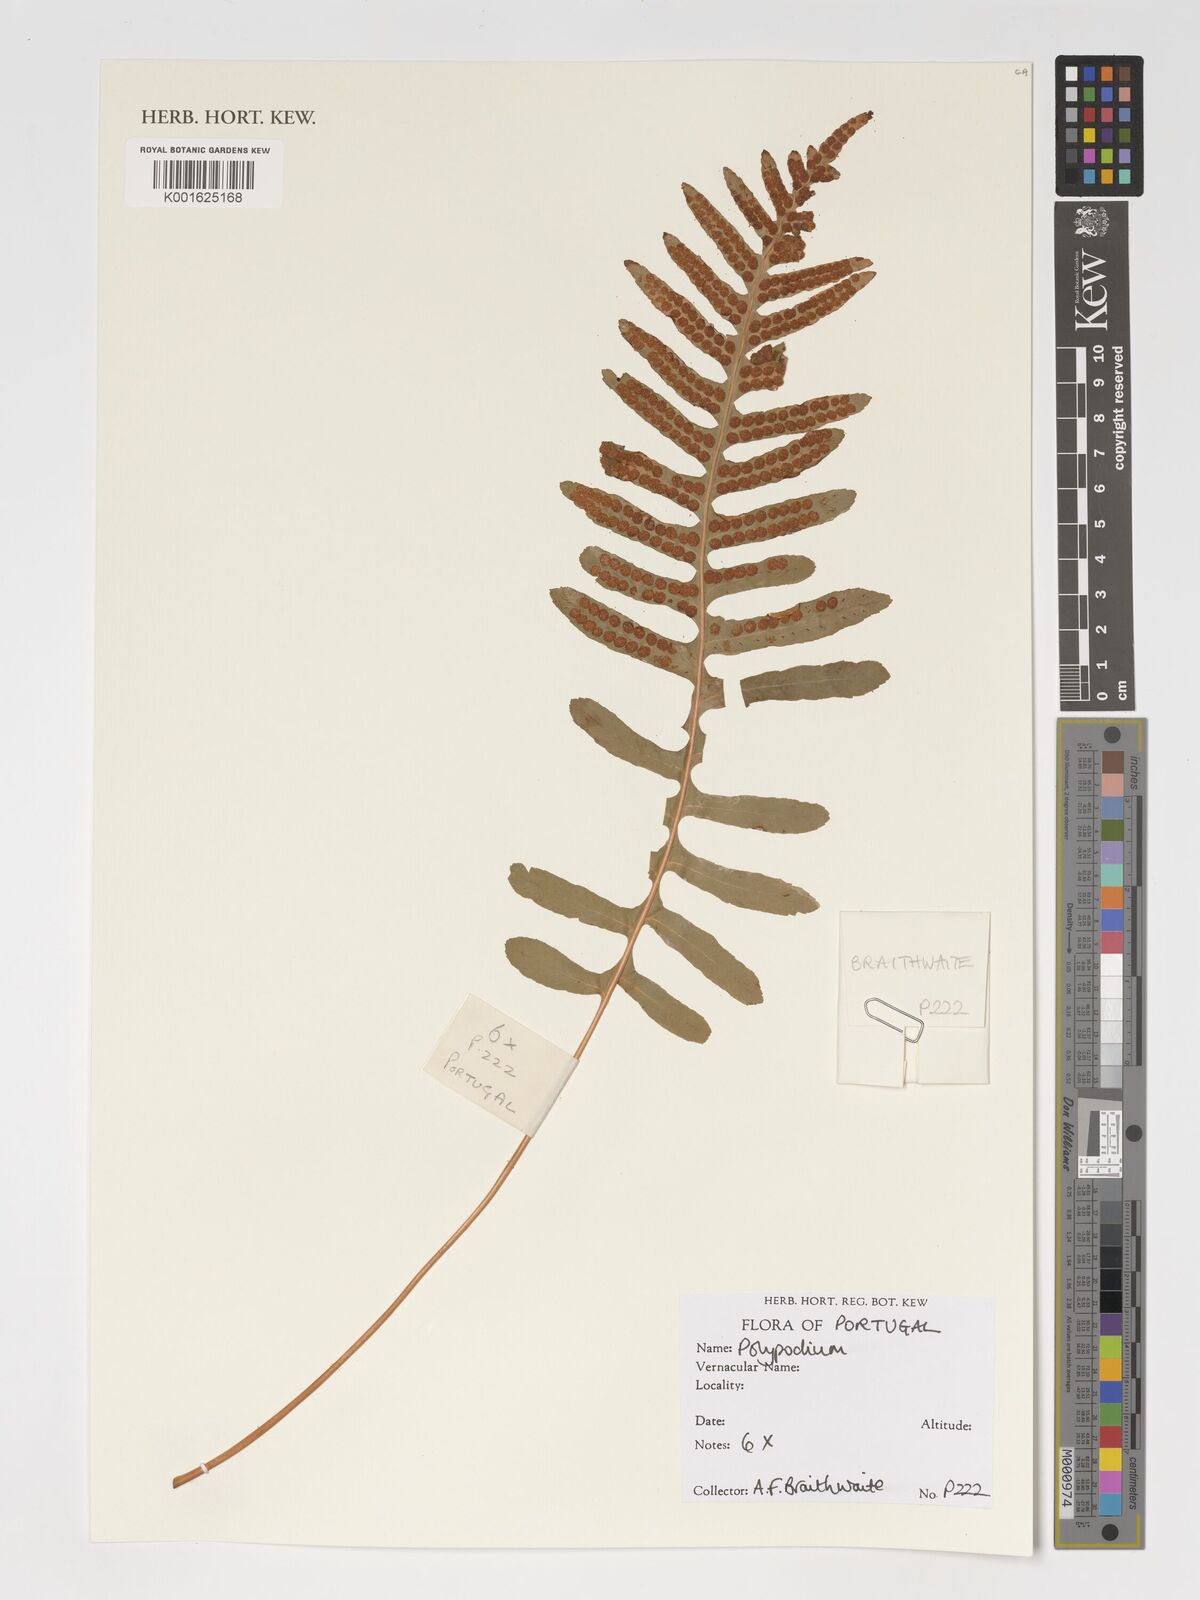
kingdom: Plantae
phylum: Tracheophyta
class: Polypodiopsida
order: Polypodiales
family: Polypodiaceae
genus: Polypodium
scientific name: Polypodium
